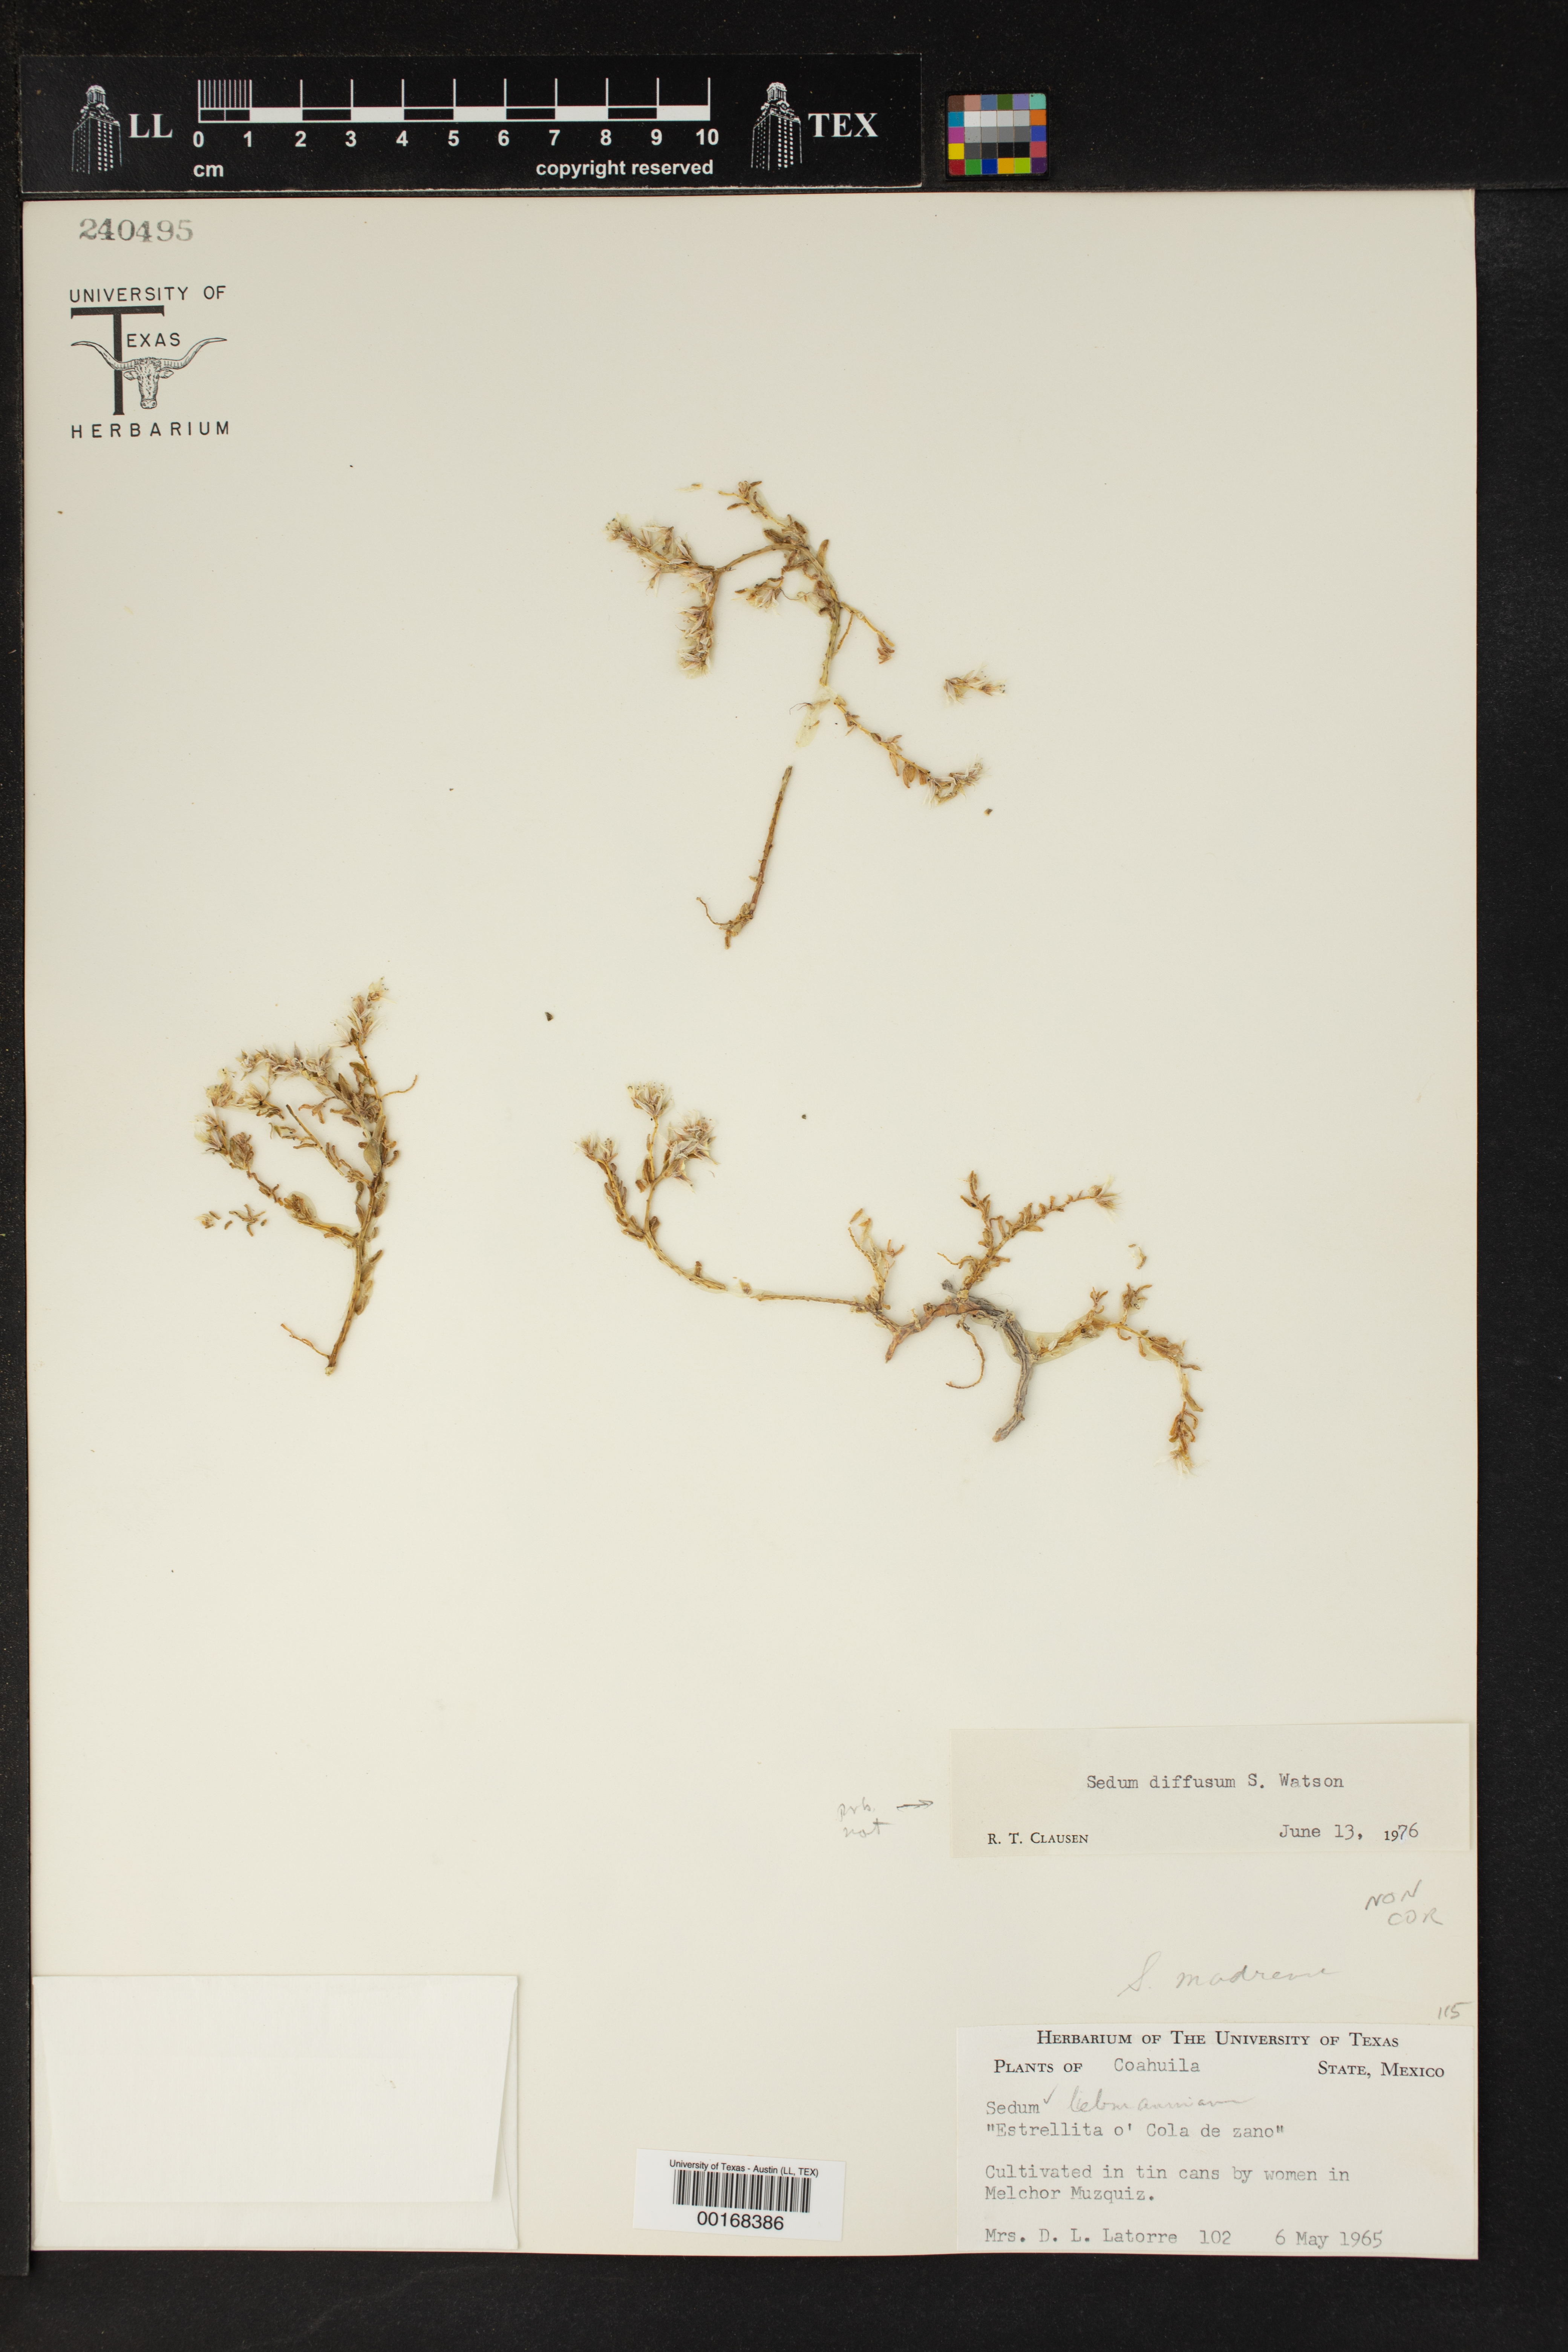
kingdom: Plantae
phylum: Tracheophyta
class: Magnoliopsida
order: Saxifragales
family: Crassulaceae
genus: Sedum
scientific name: Sedum diffusum
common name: Stonecrop
